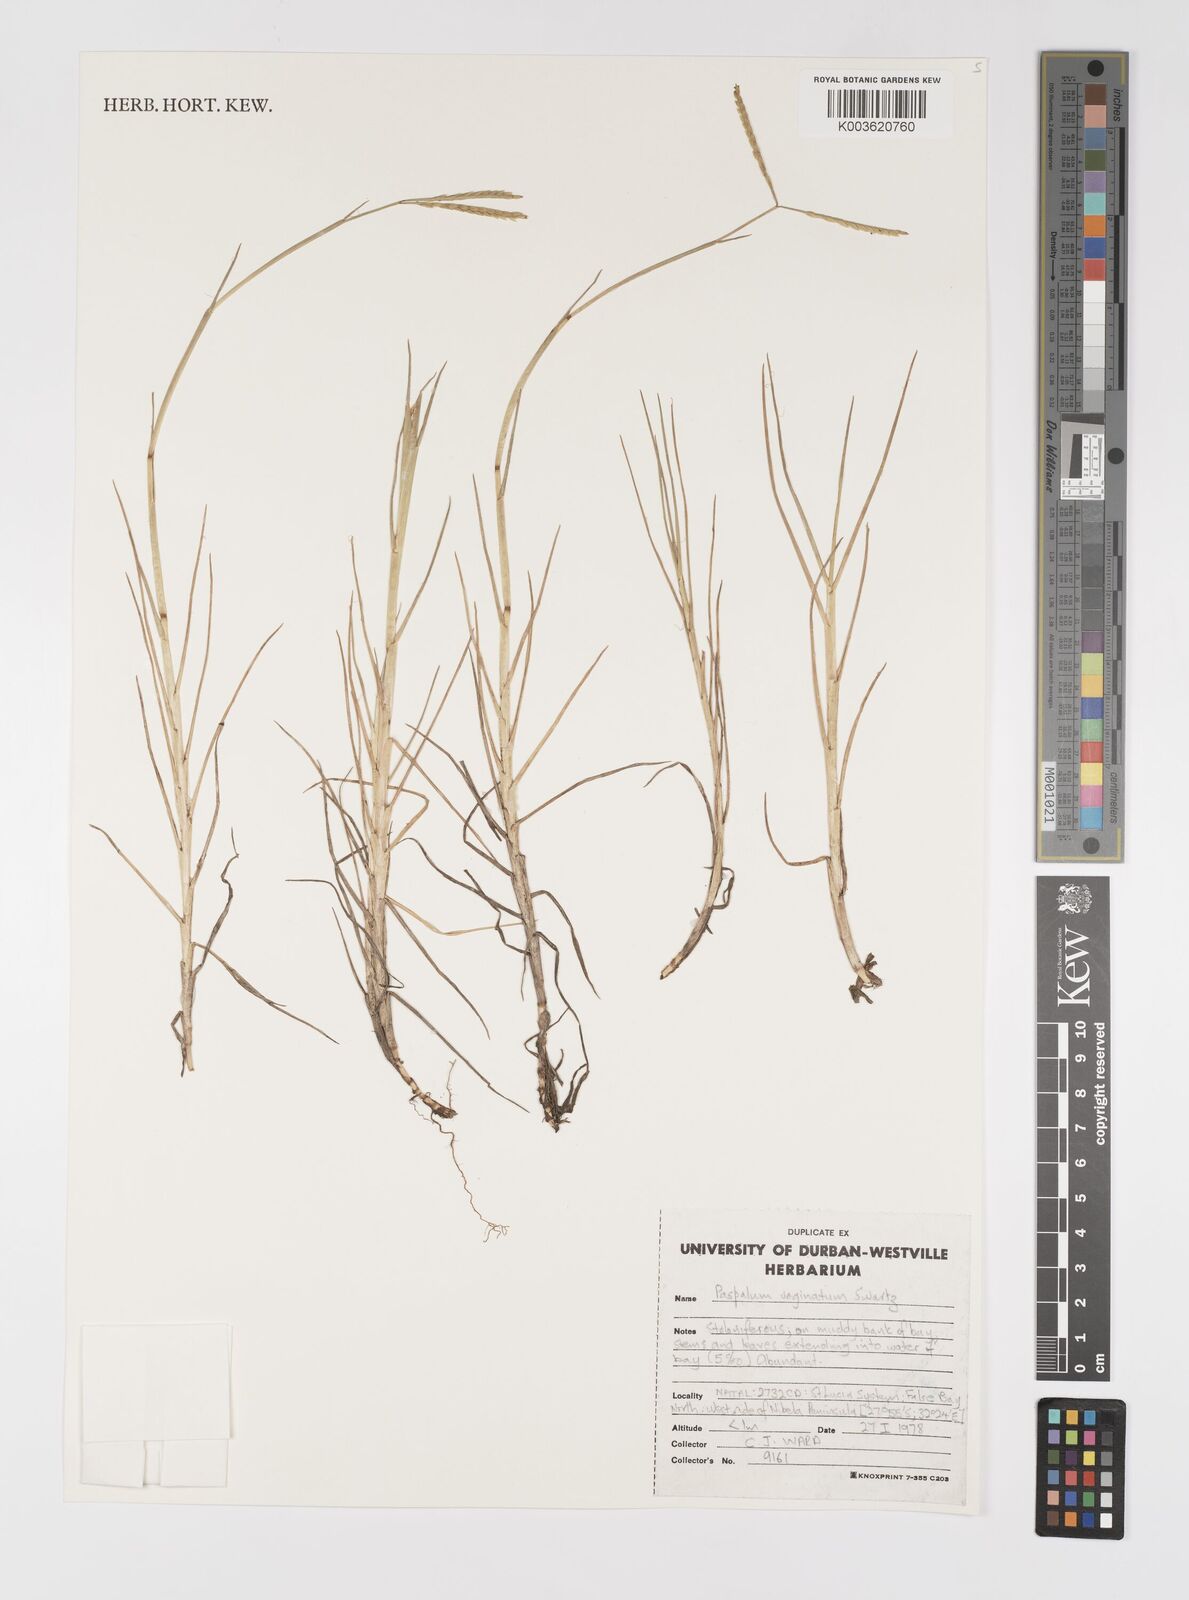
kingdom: Plantae
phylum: Tracheophyta
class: Liliopsida
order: Poales
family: Poaceae
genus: Paspalum
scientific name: Paspalum vaginatum
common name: Seashore paspalum
